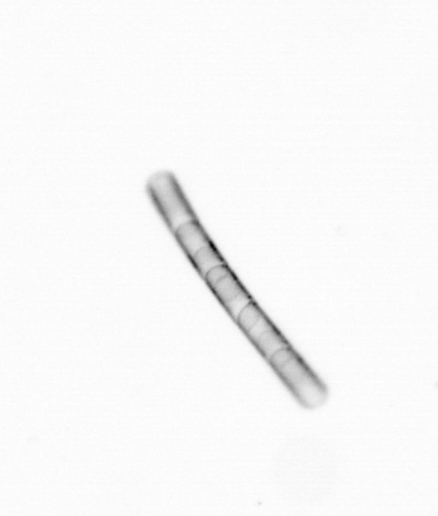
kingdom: Chromista
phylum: Ochrophyta
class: Bacillariophyceae
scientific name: Bacillariophyceae
